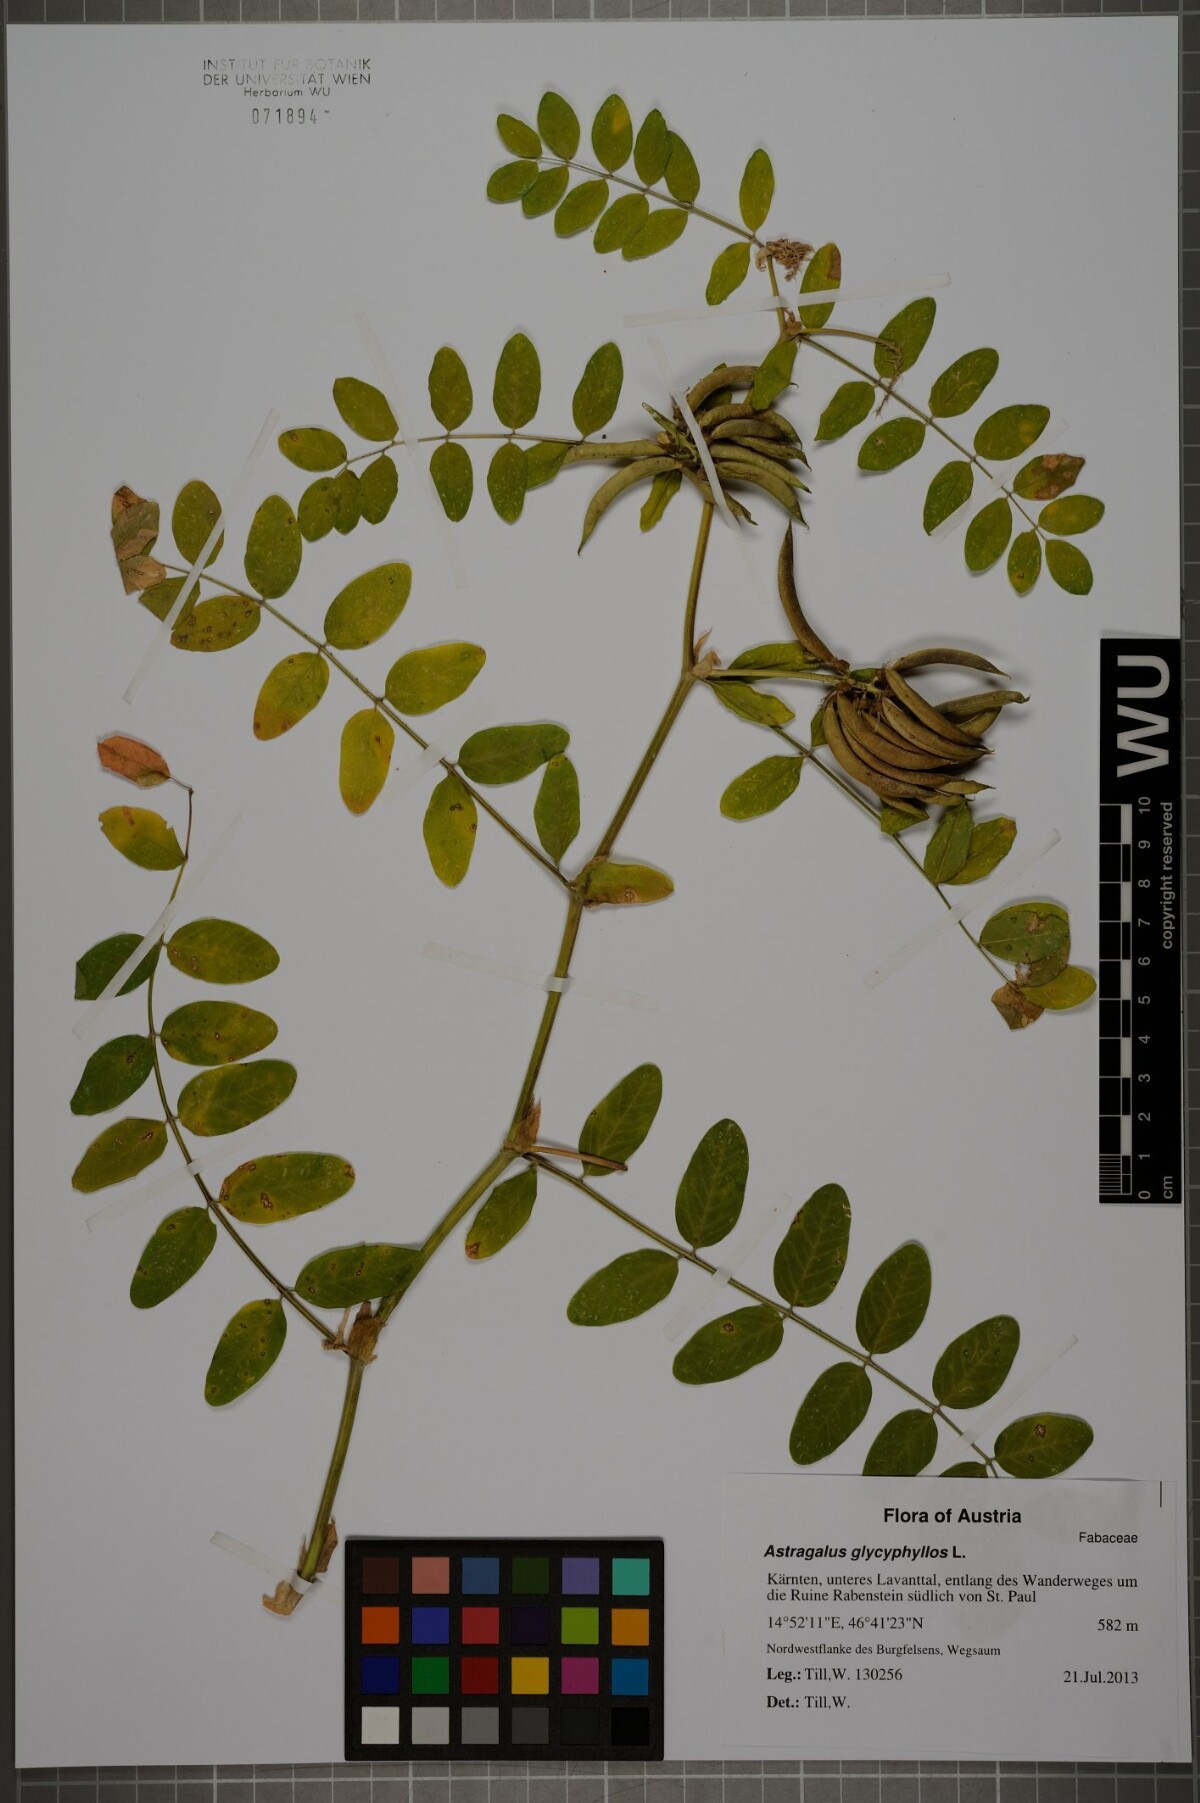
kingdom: Plantae
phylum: Tracheophyta
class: Magnoliopsida
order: Fabales
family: Fabaceae
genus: Astragalus
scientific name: Astragalus glycyphyllos
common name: Wild liquorice
